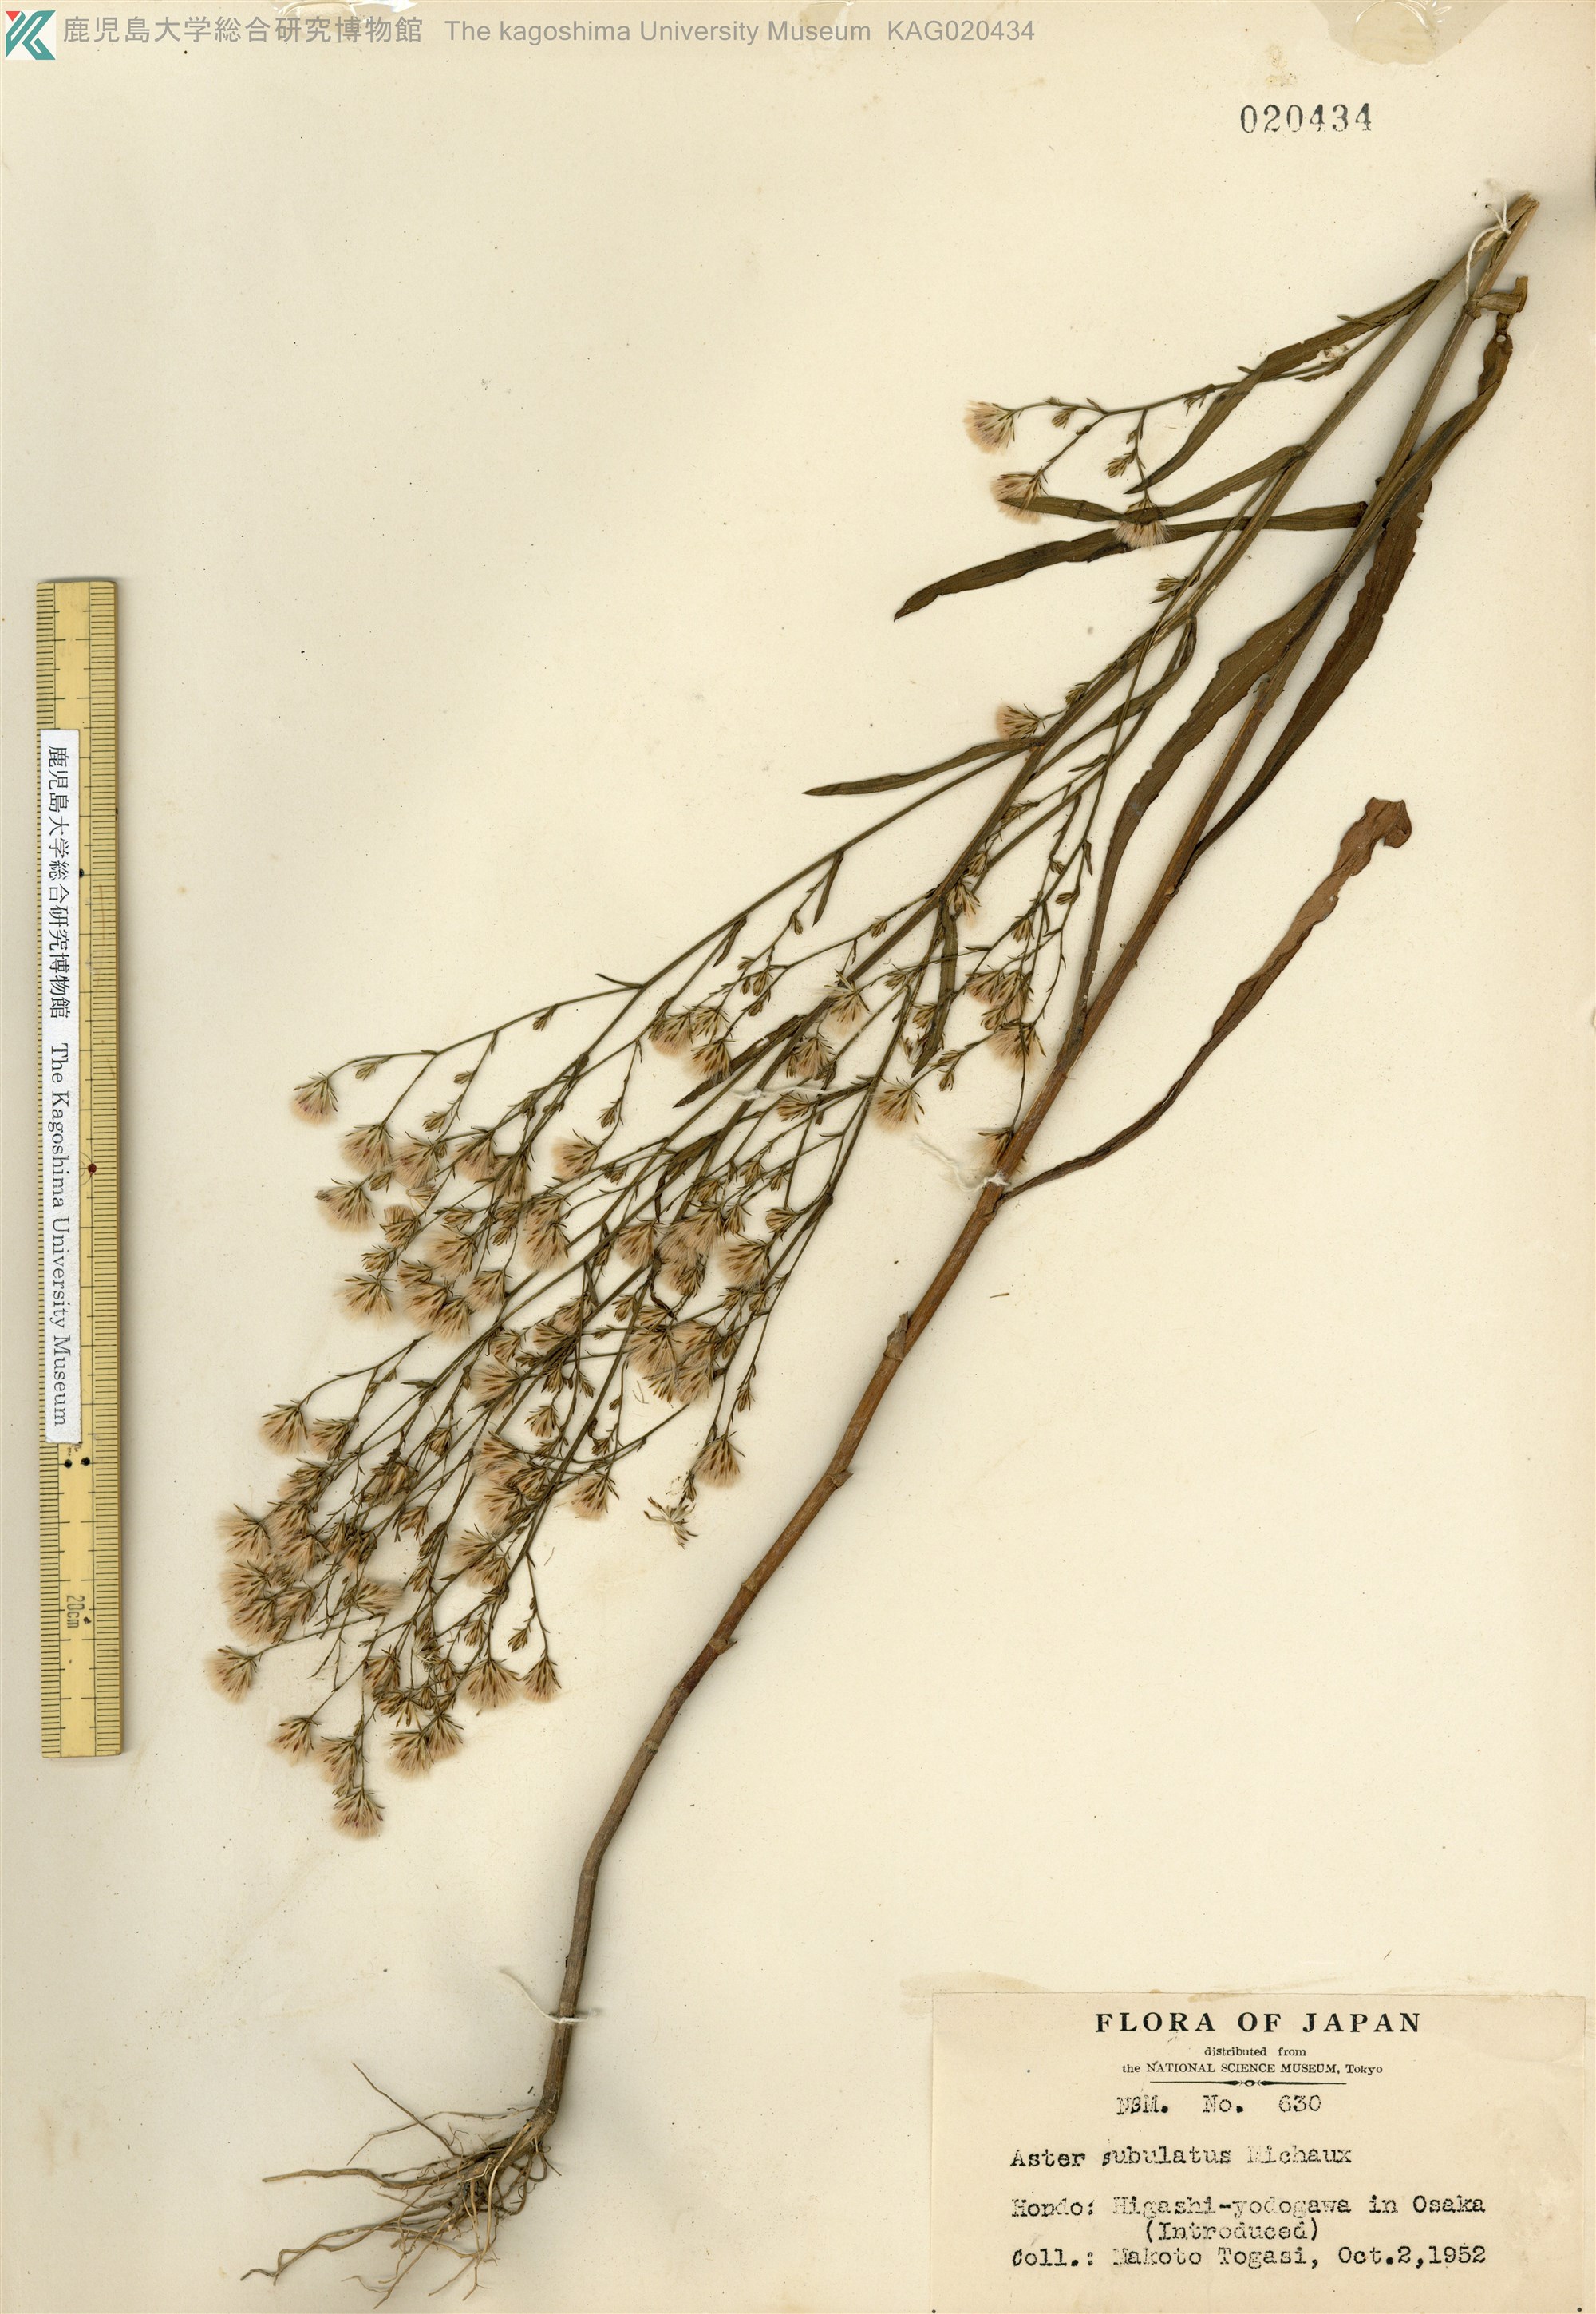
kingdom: Plantae
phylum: Tracheophyta
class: Magnoliopsida
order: Asterales
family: Asteraceae
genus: Symphyotrichum
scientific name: Symphyotrichum subulatum
